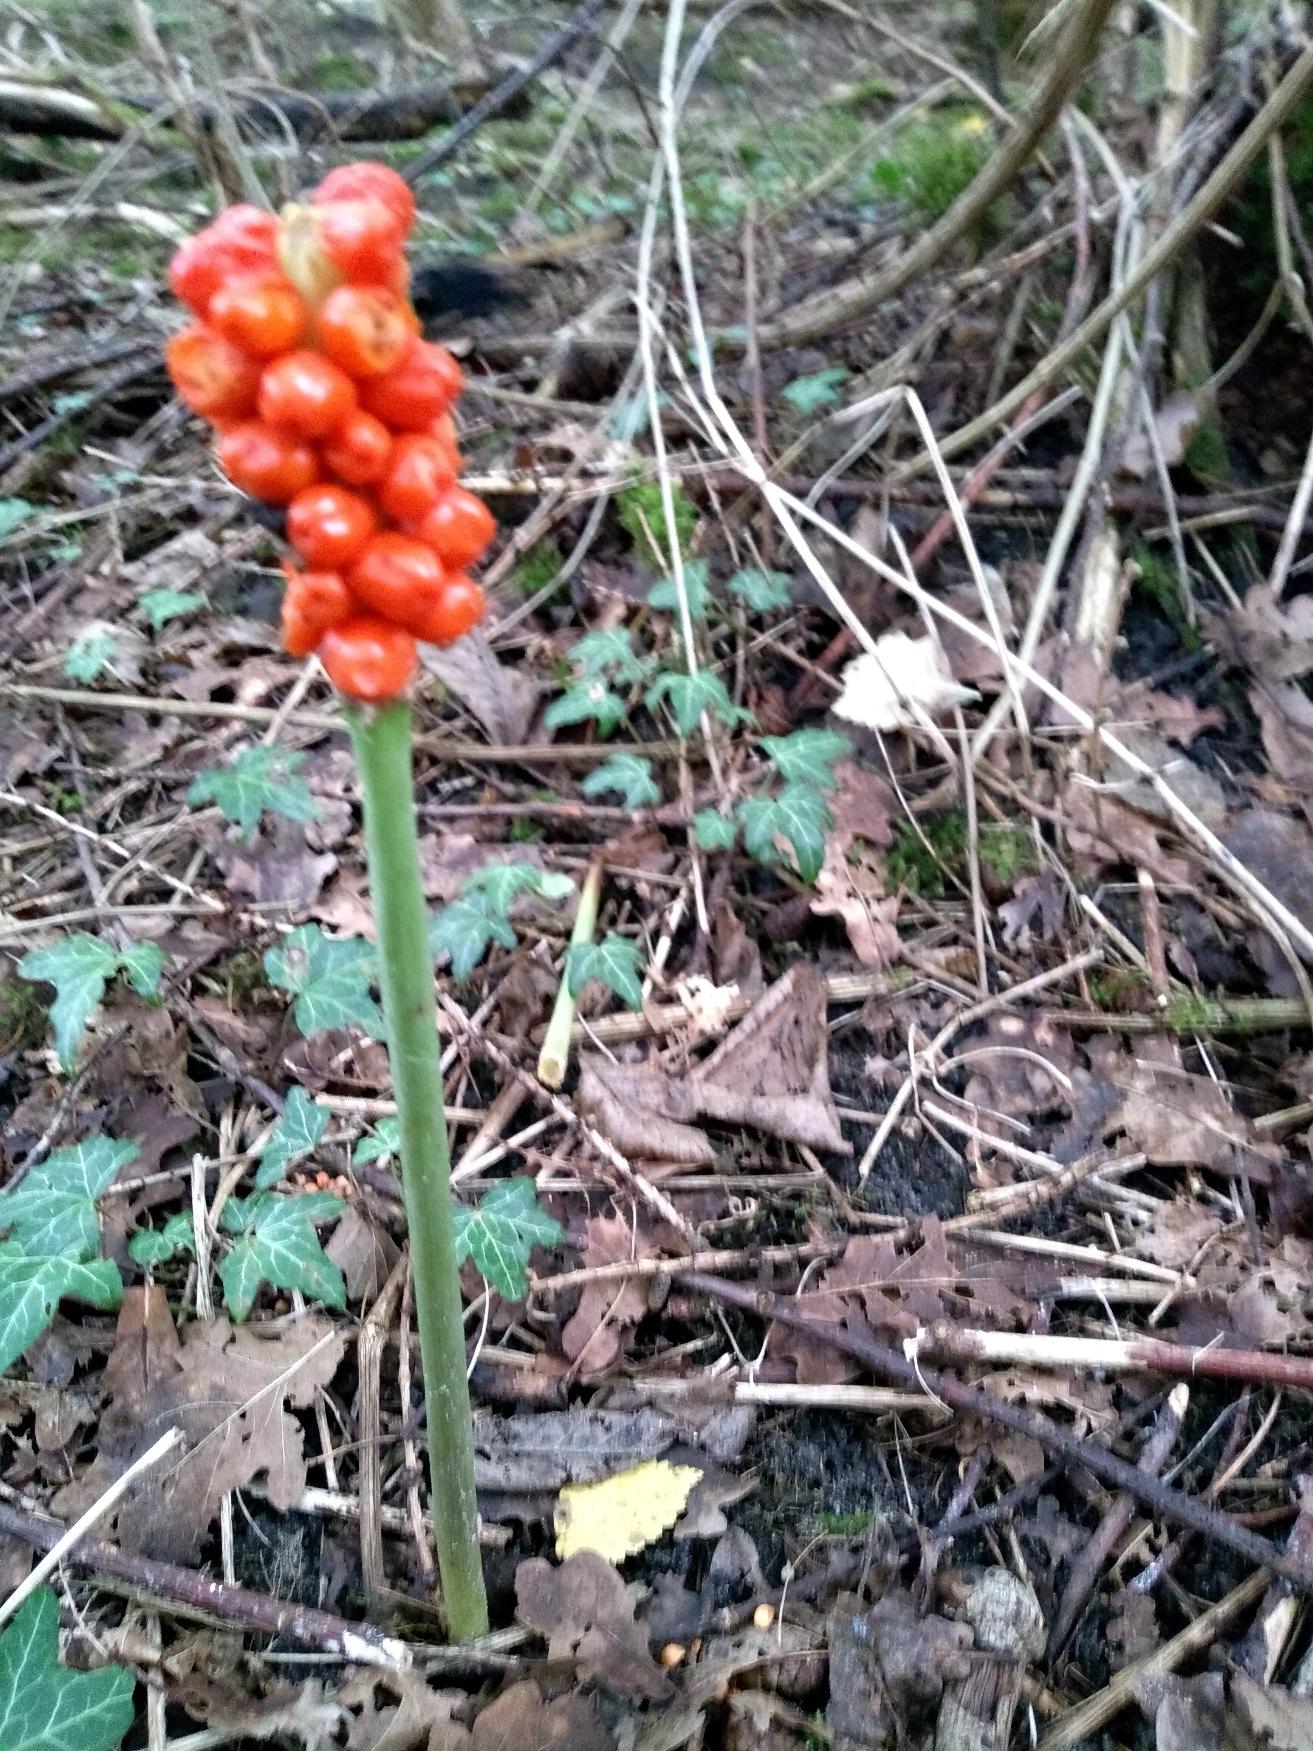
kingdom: Plantae
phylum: Tracheophyta
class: Liliopsida
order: Alismatales
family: Araceae
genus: Arum
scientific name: Arum
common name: Arumslægten
